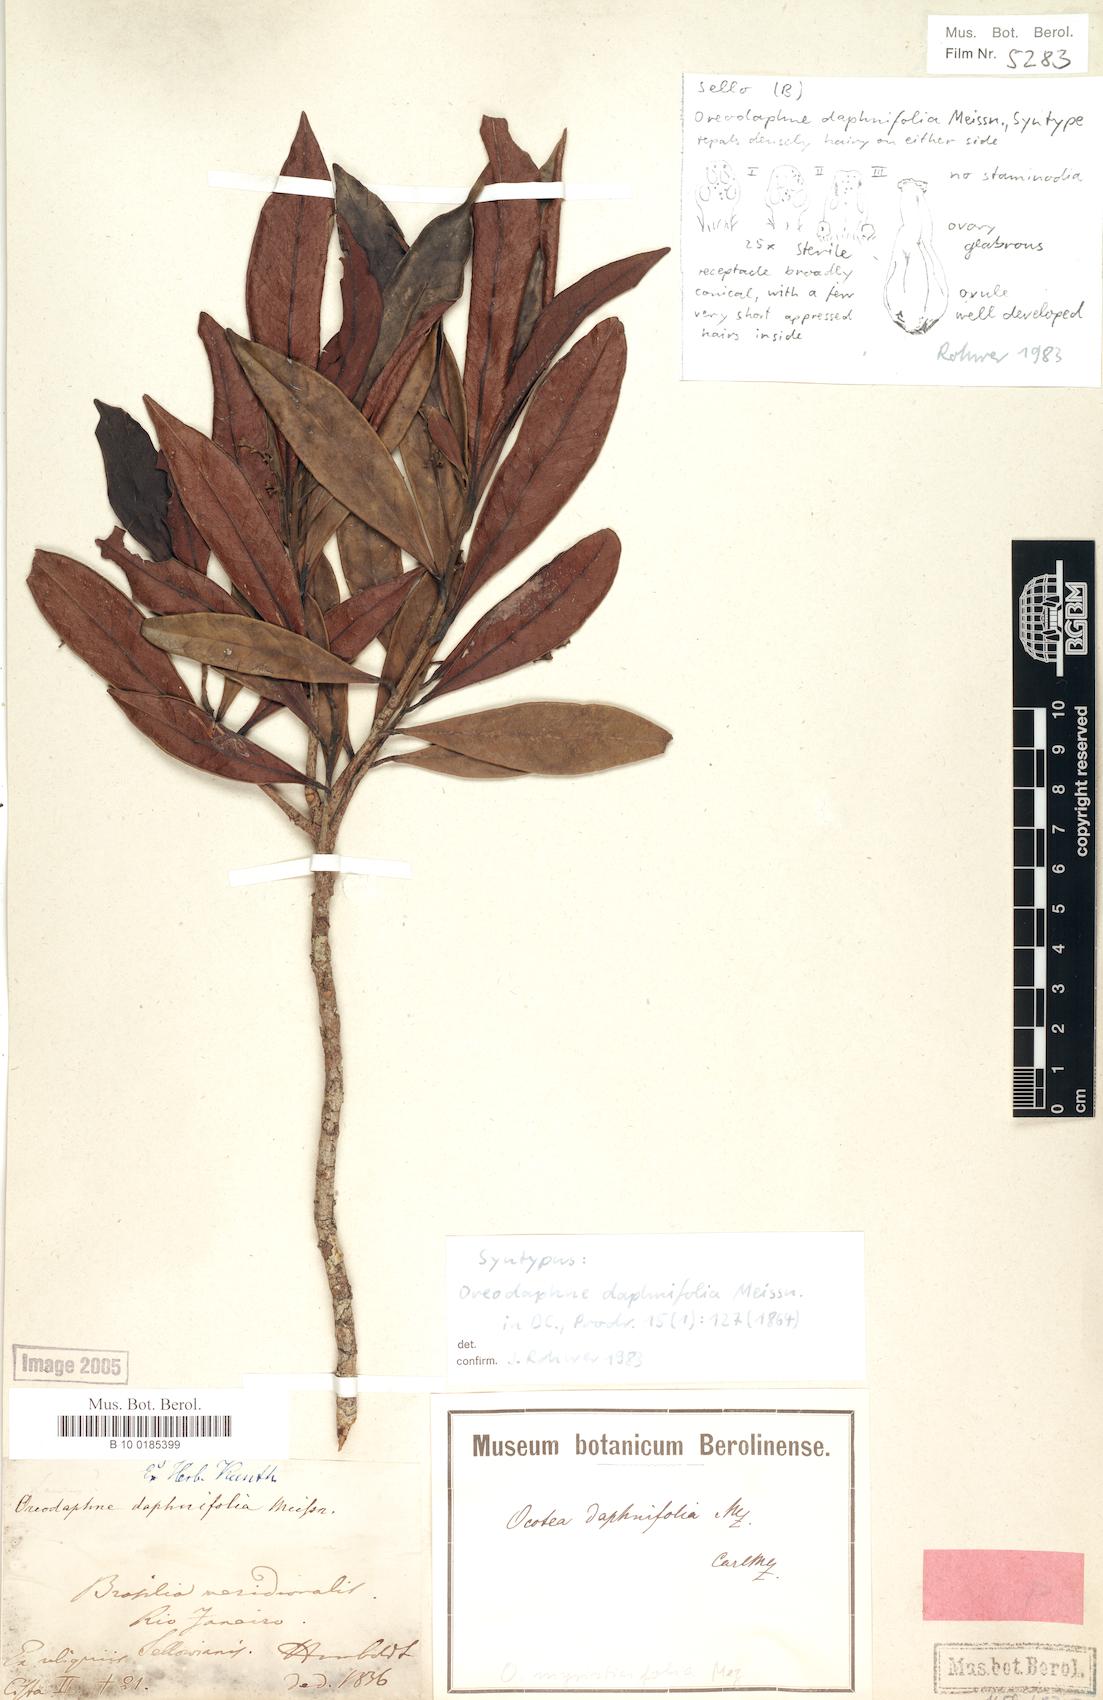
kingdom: Plantae
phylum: Tracheophyta
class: Magnoliopsida
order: Laurales
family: Lauraceae
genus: Ocotea
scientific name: Ocotea daphnifolia
